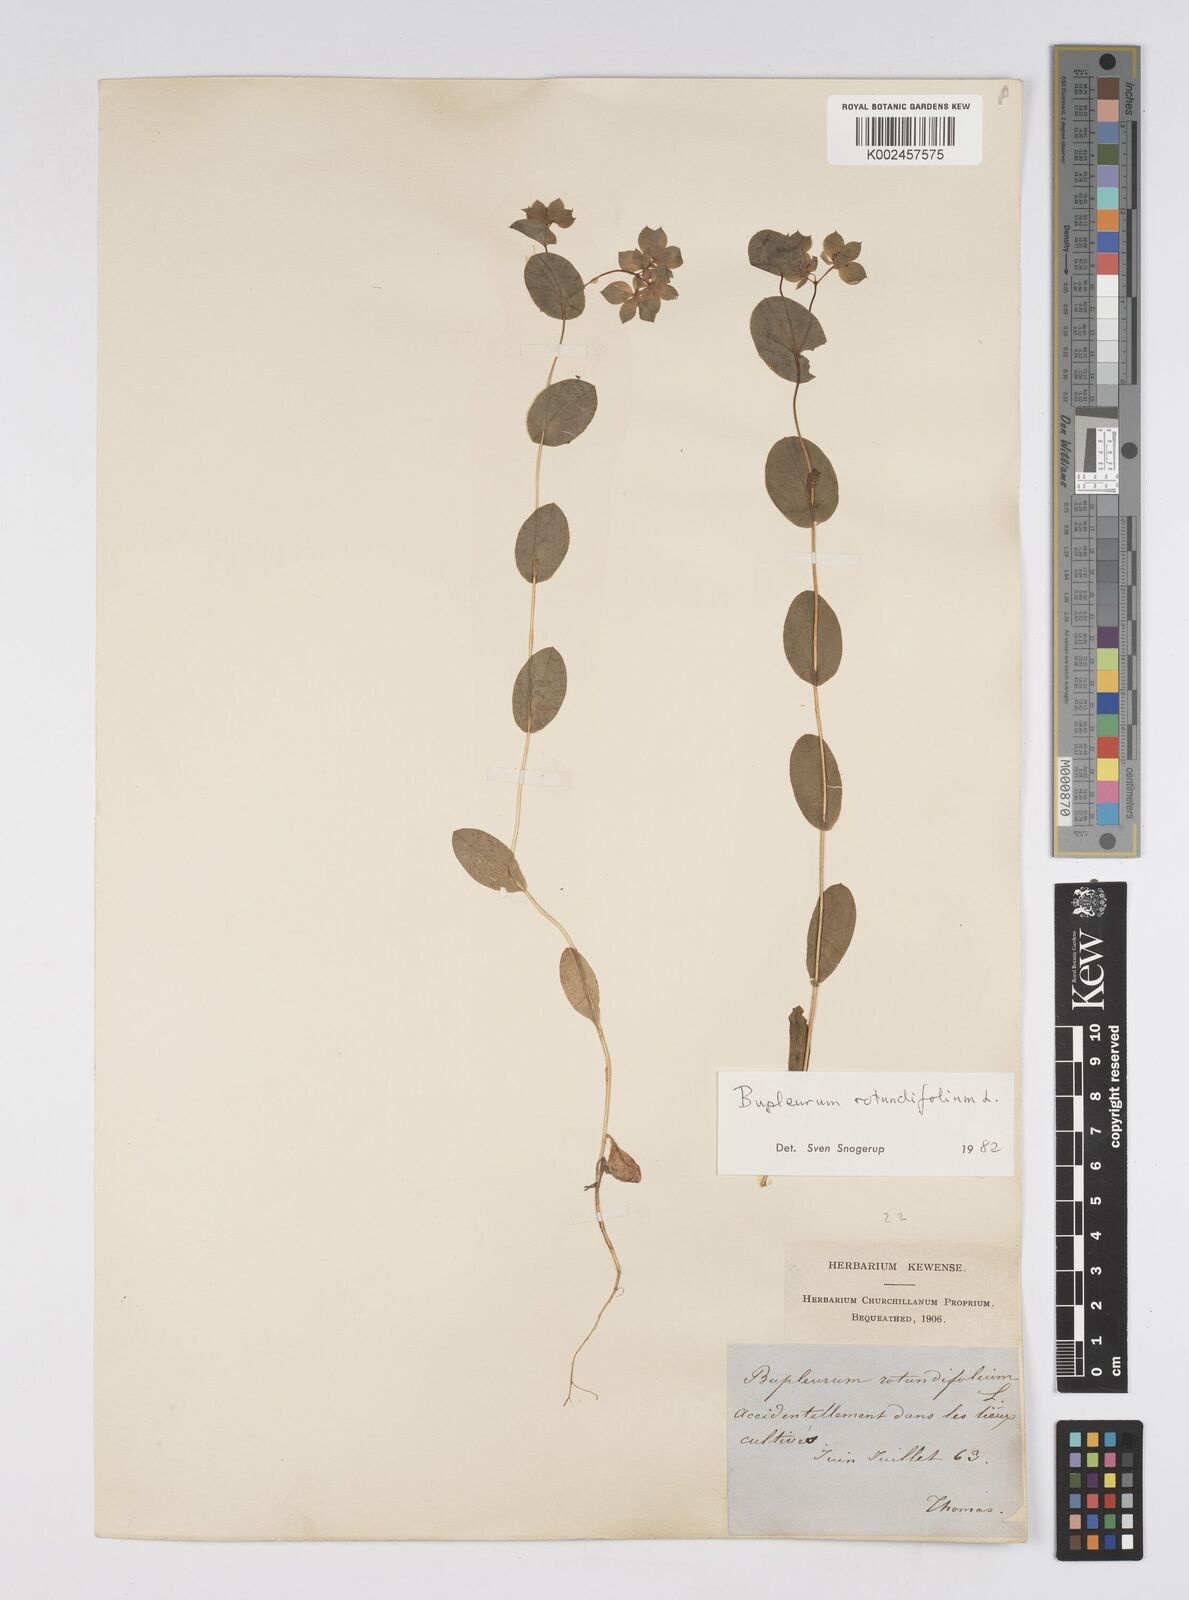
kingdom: Plantae
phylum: Tracheophyta
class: Magnoliopsida
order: Apiales
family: Apiaceae
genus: Bupleurum
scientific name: Bupleurum rotundifolium
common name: Thorow-wax
